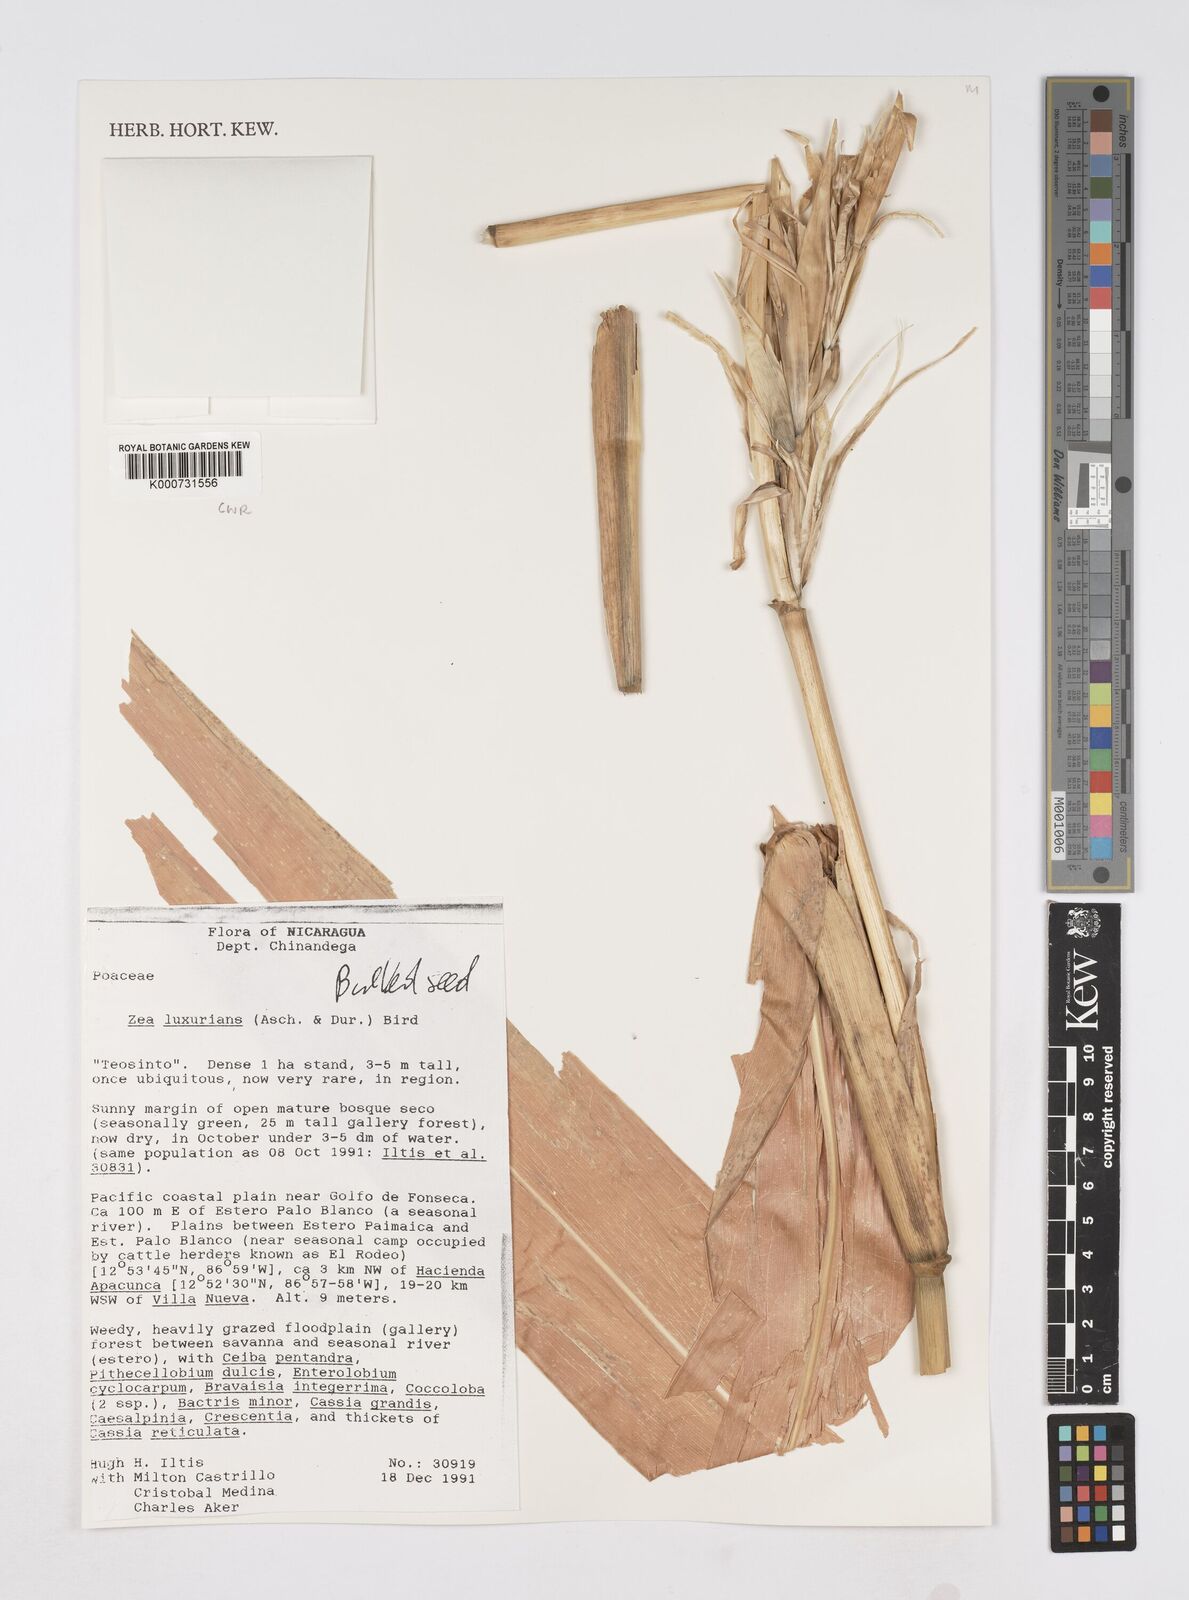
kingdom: Plantae
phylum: Tracheophyta
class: Liliopsida
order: Poales
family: Poaceae
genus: Zea
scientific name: Zea luxurians
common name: Teosinte
